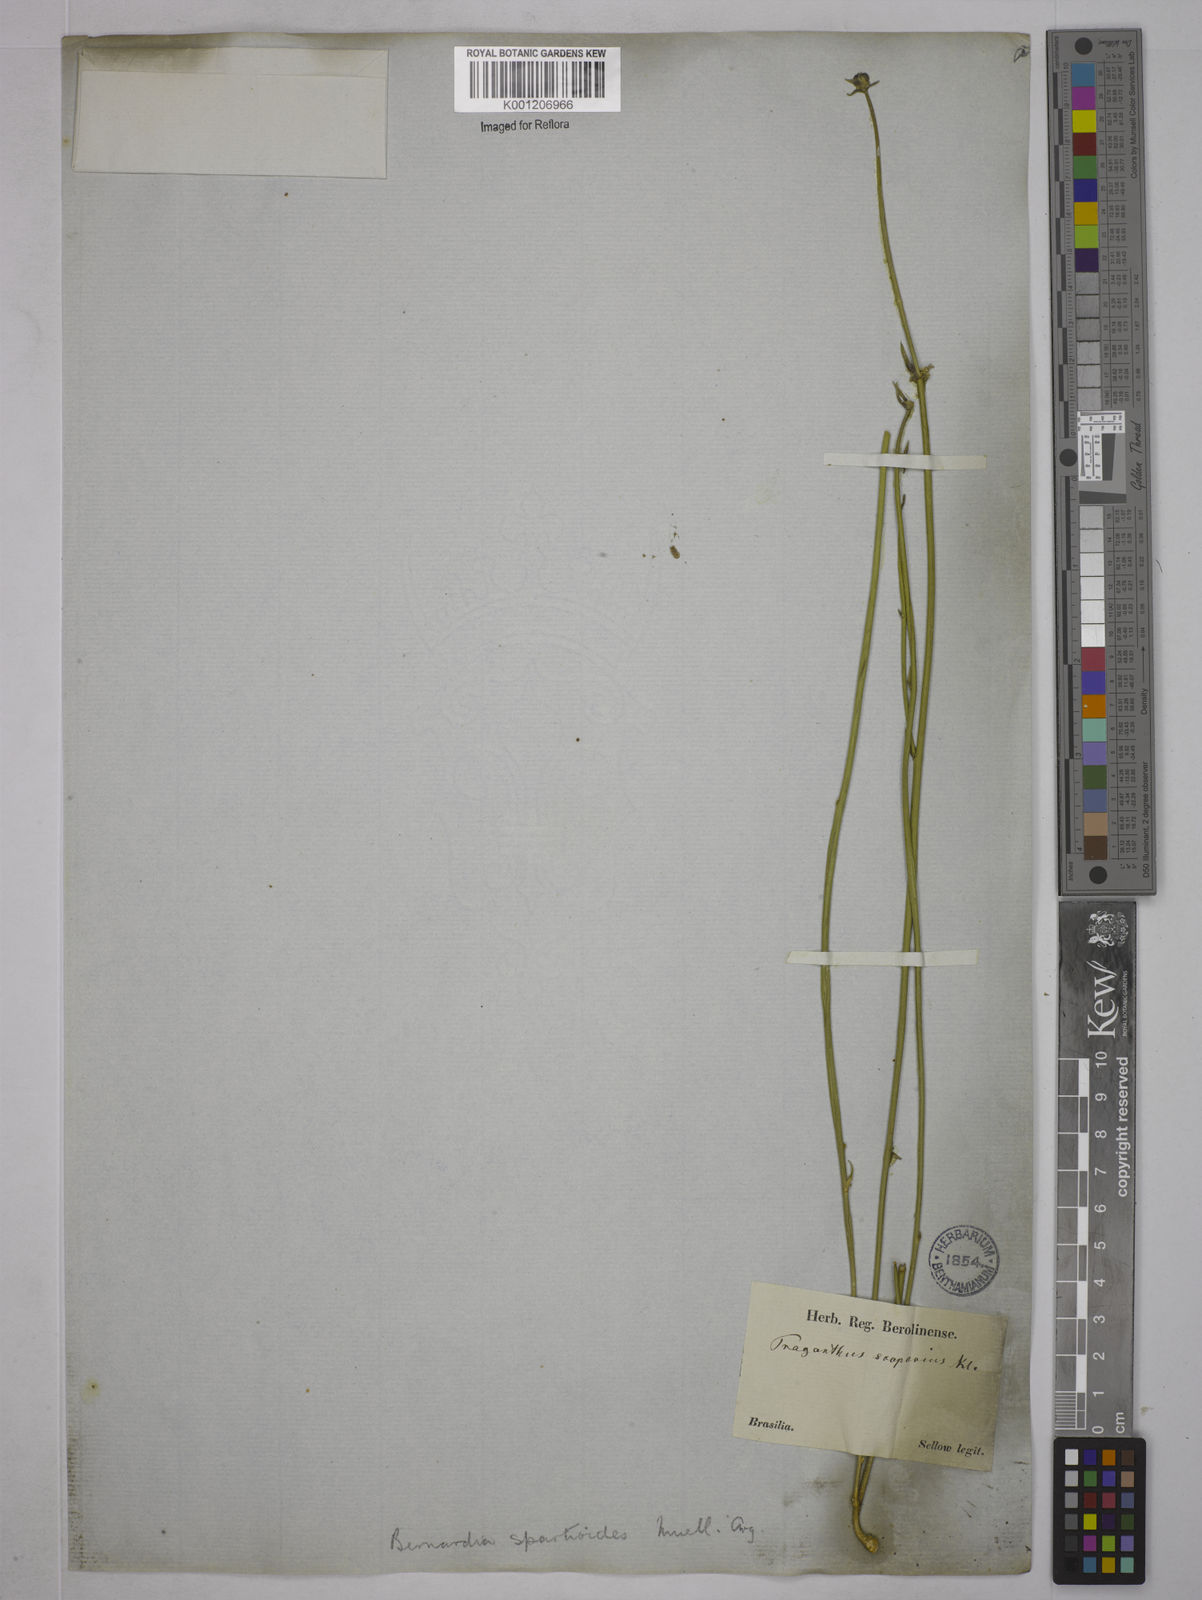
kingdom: Plantae
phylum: Tracheophyta
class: Magnoliopsida
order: Malpighiales
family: Euphorbiaceae
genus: Bernardia
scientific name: Bernardia
